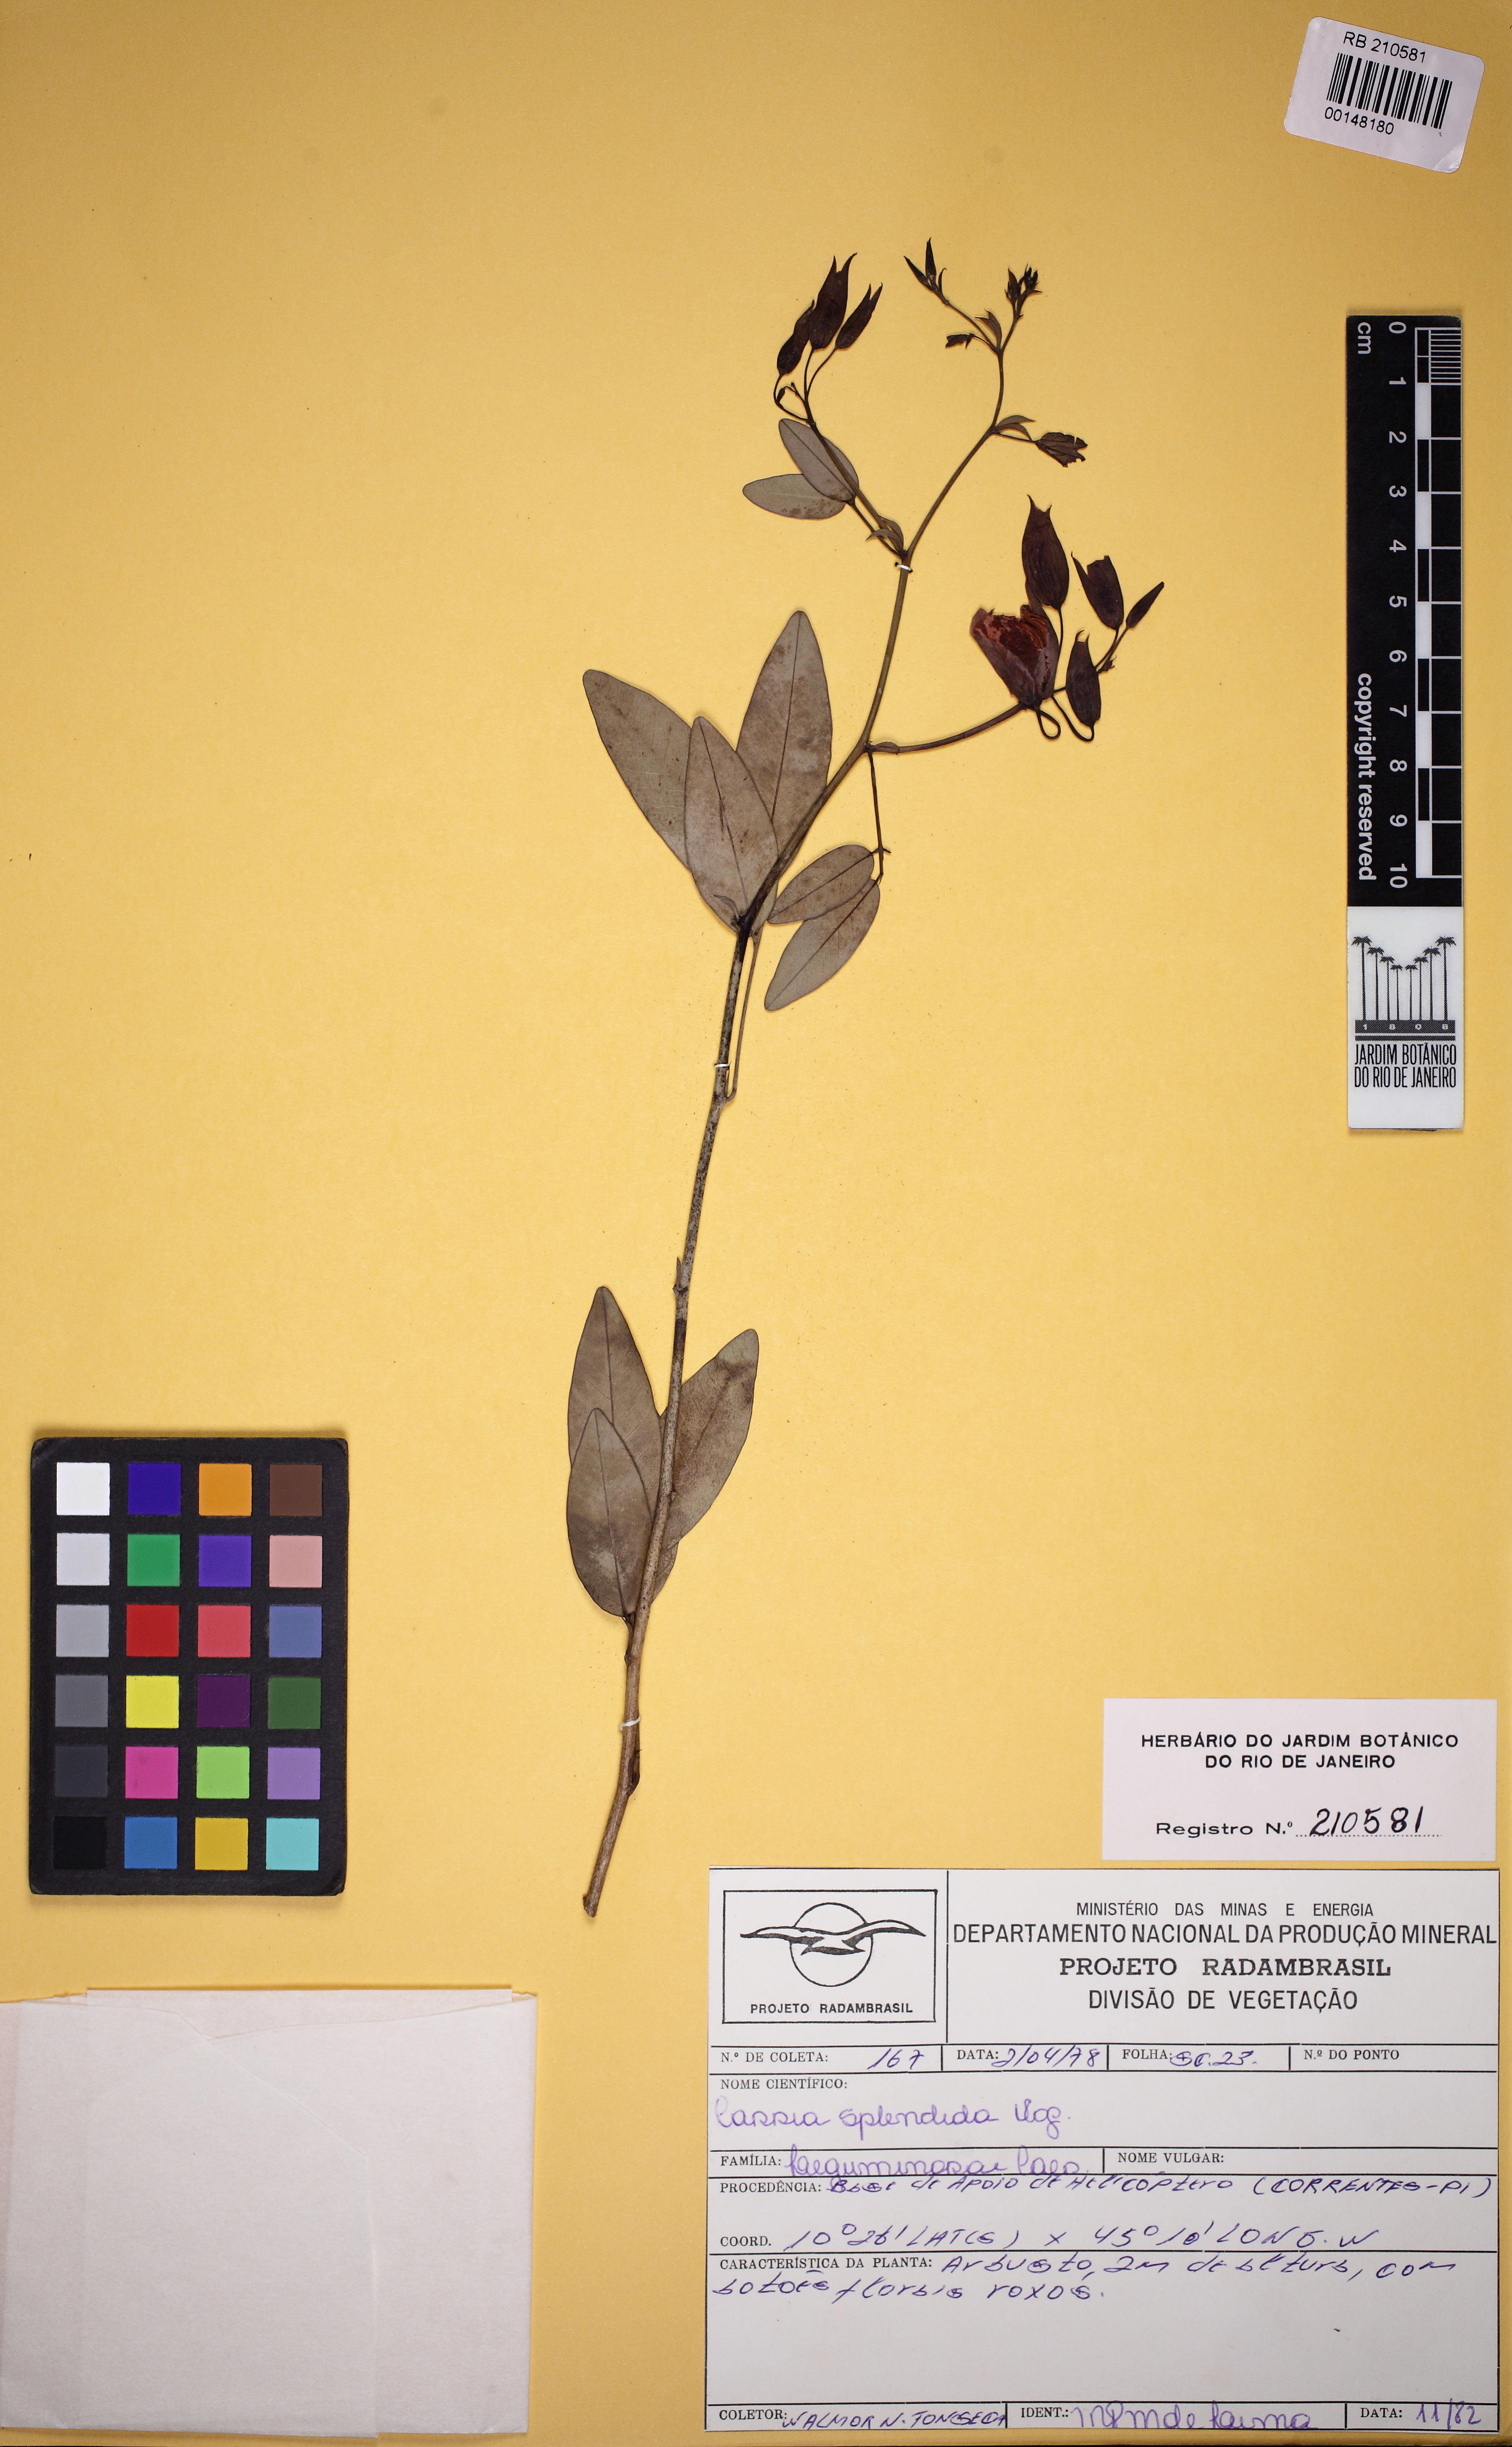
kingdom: Plantae
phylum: Tracheophyta
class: Magnoliopsida
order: Fabales
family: Fabaceae
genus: Senna
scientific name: Senna splendida
